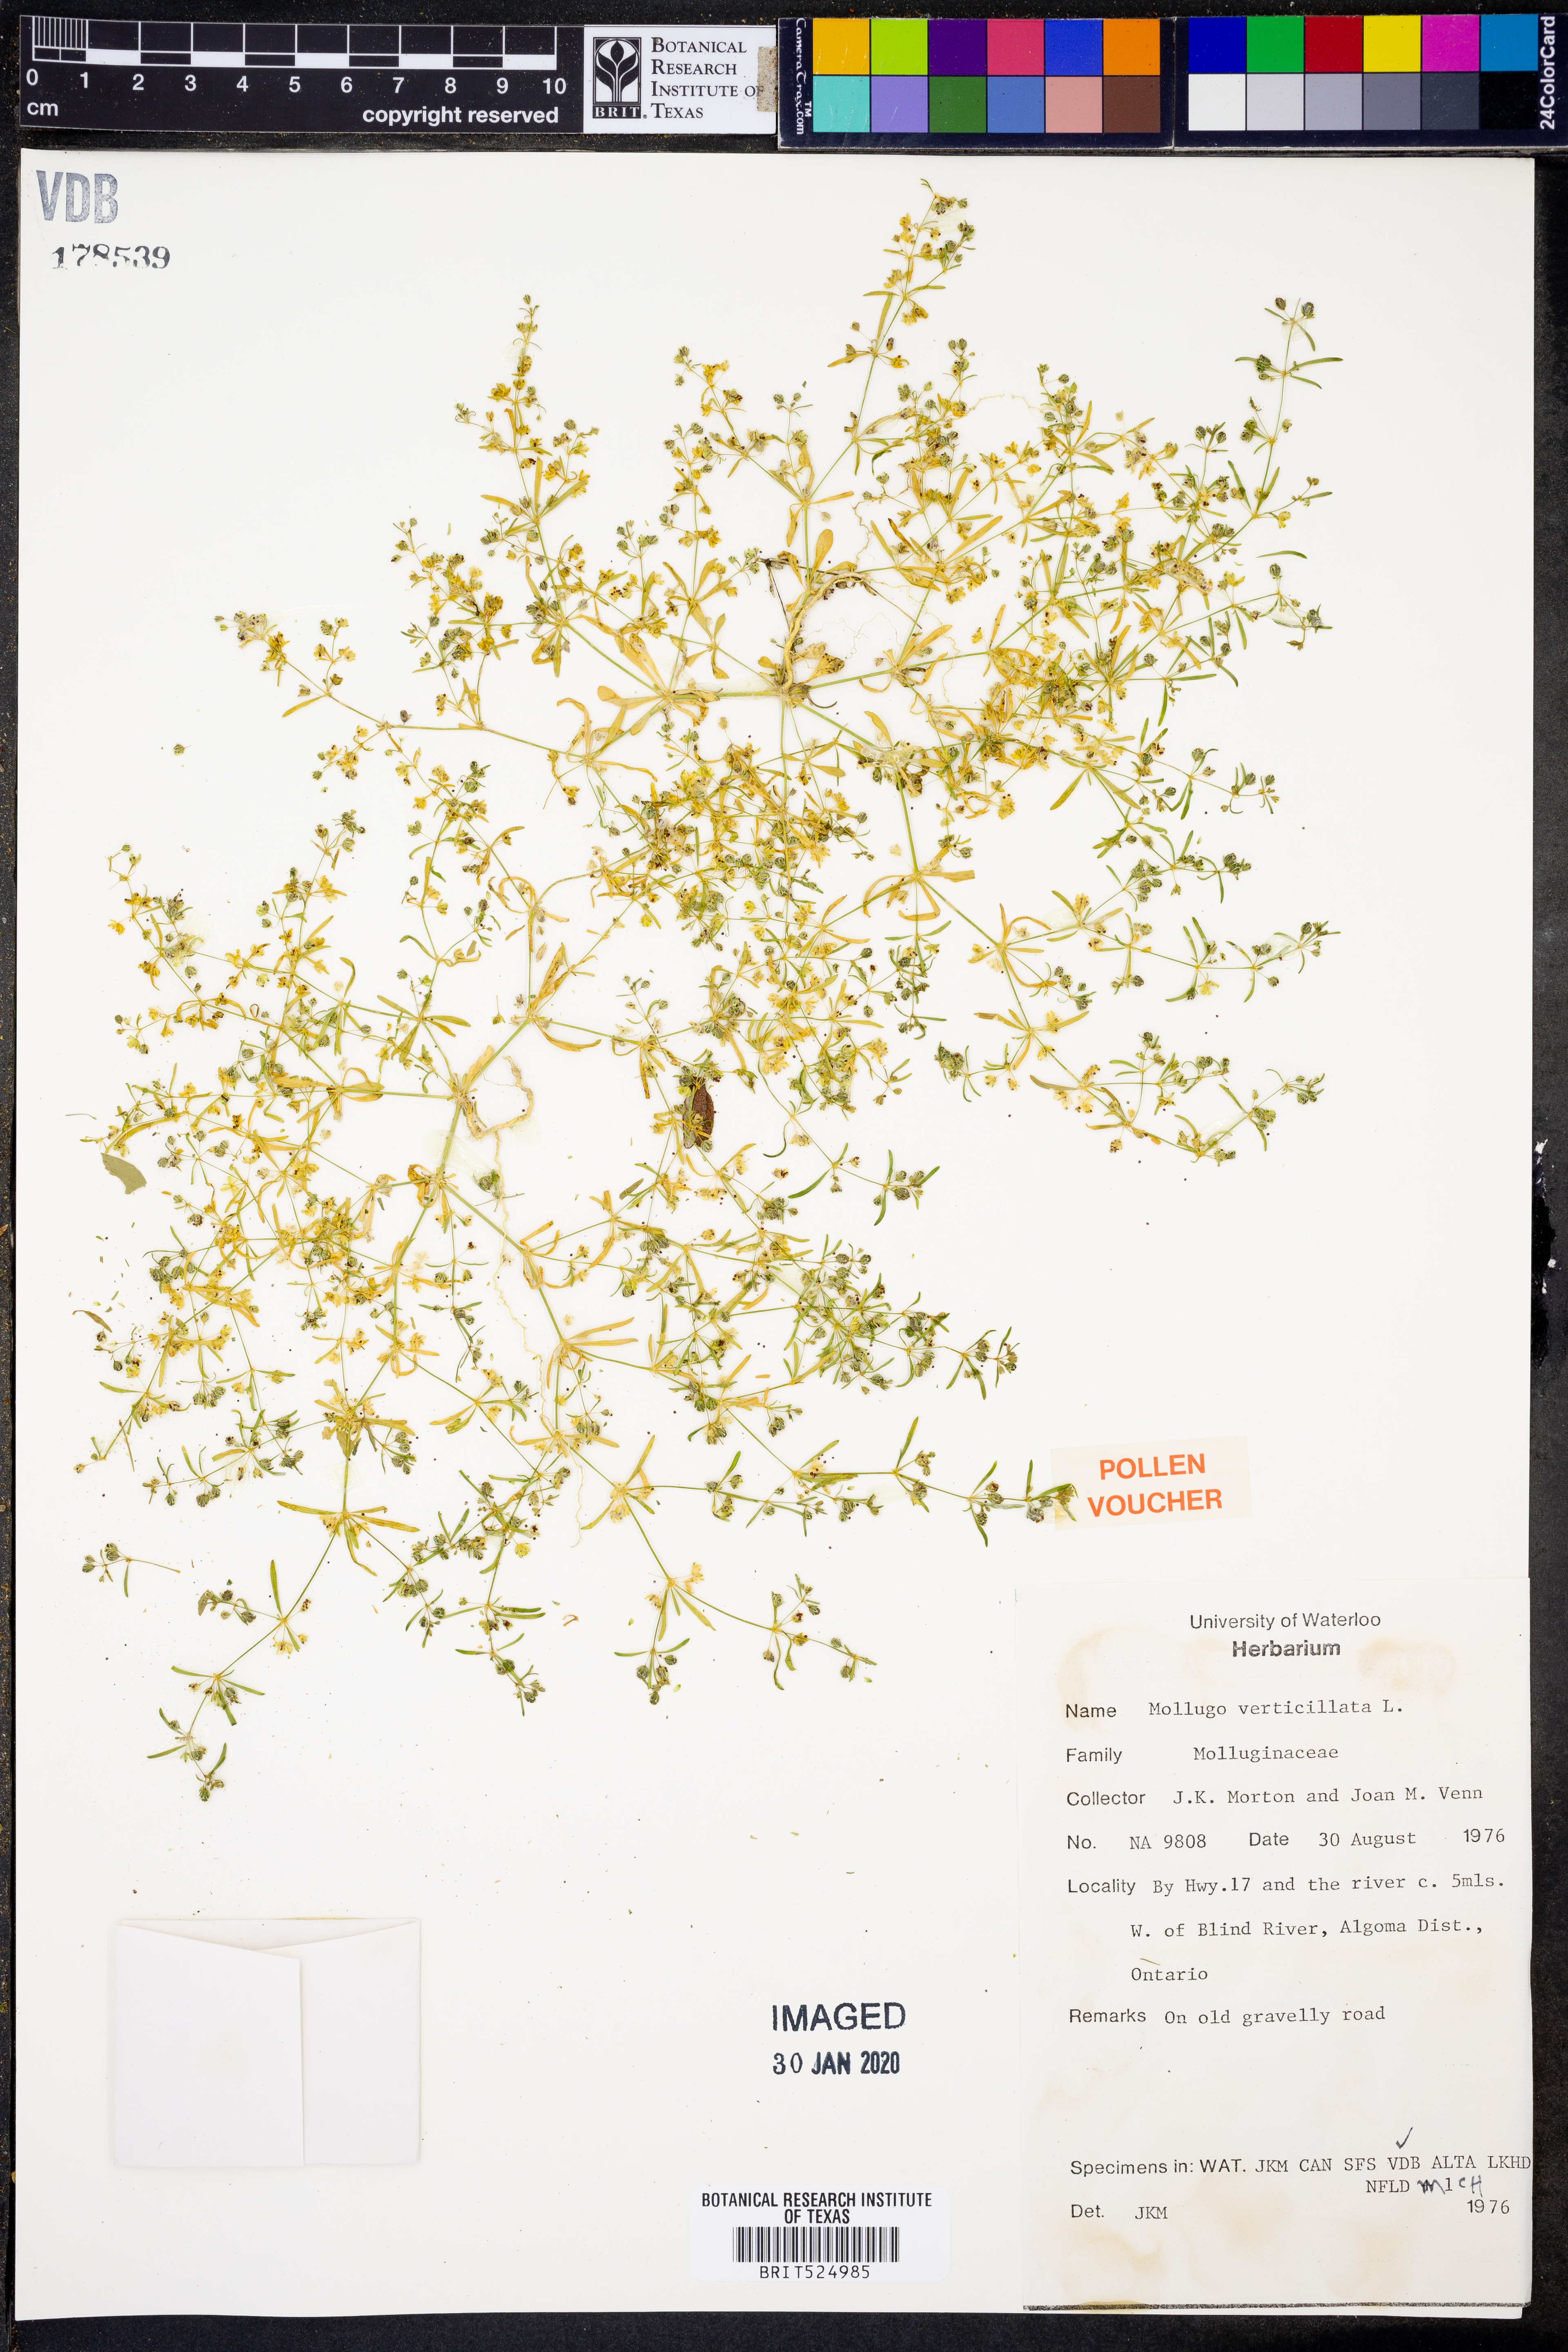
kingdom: Plantae
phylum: Tracheophyta
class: Magnoliopsida
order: Caryophyllales
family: Molluginaceae
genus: Mollugo
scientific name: Mollugo verticillata
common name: Green carpetweed
